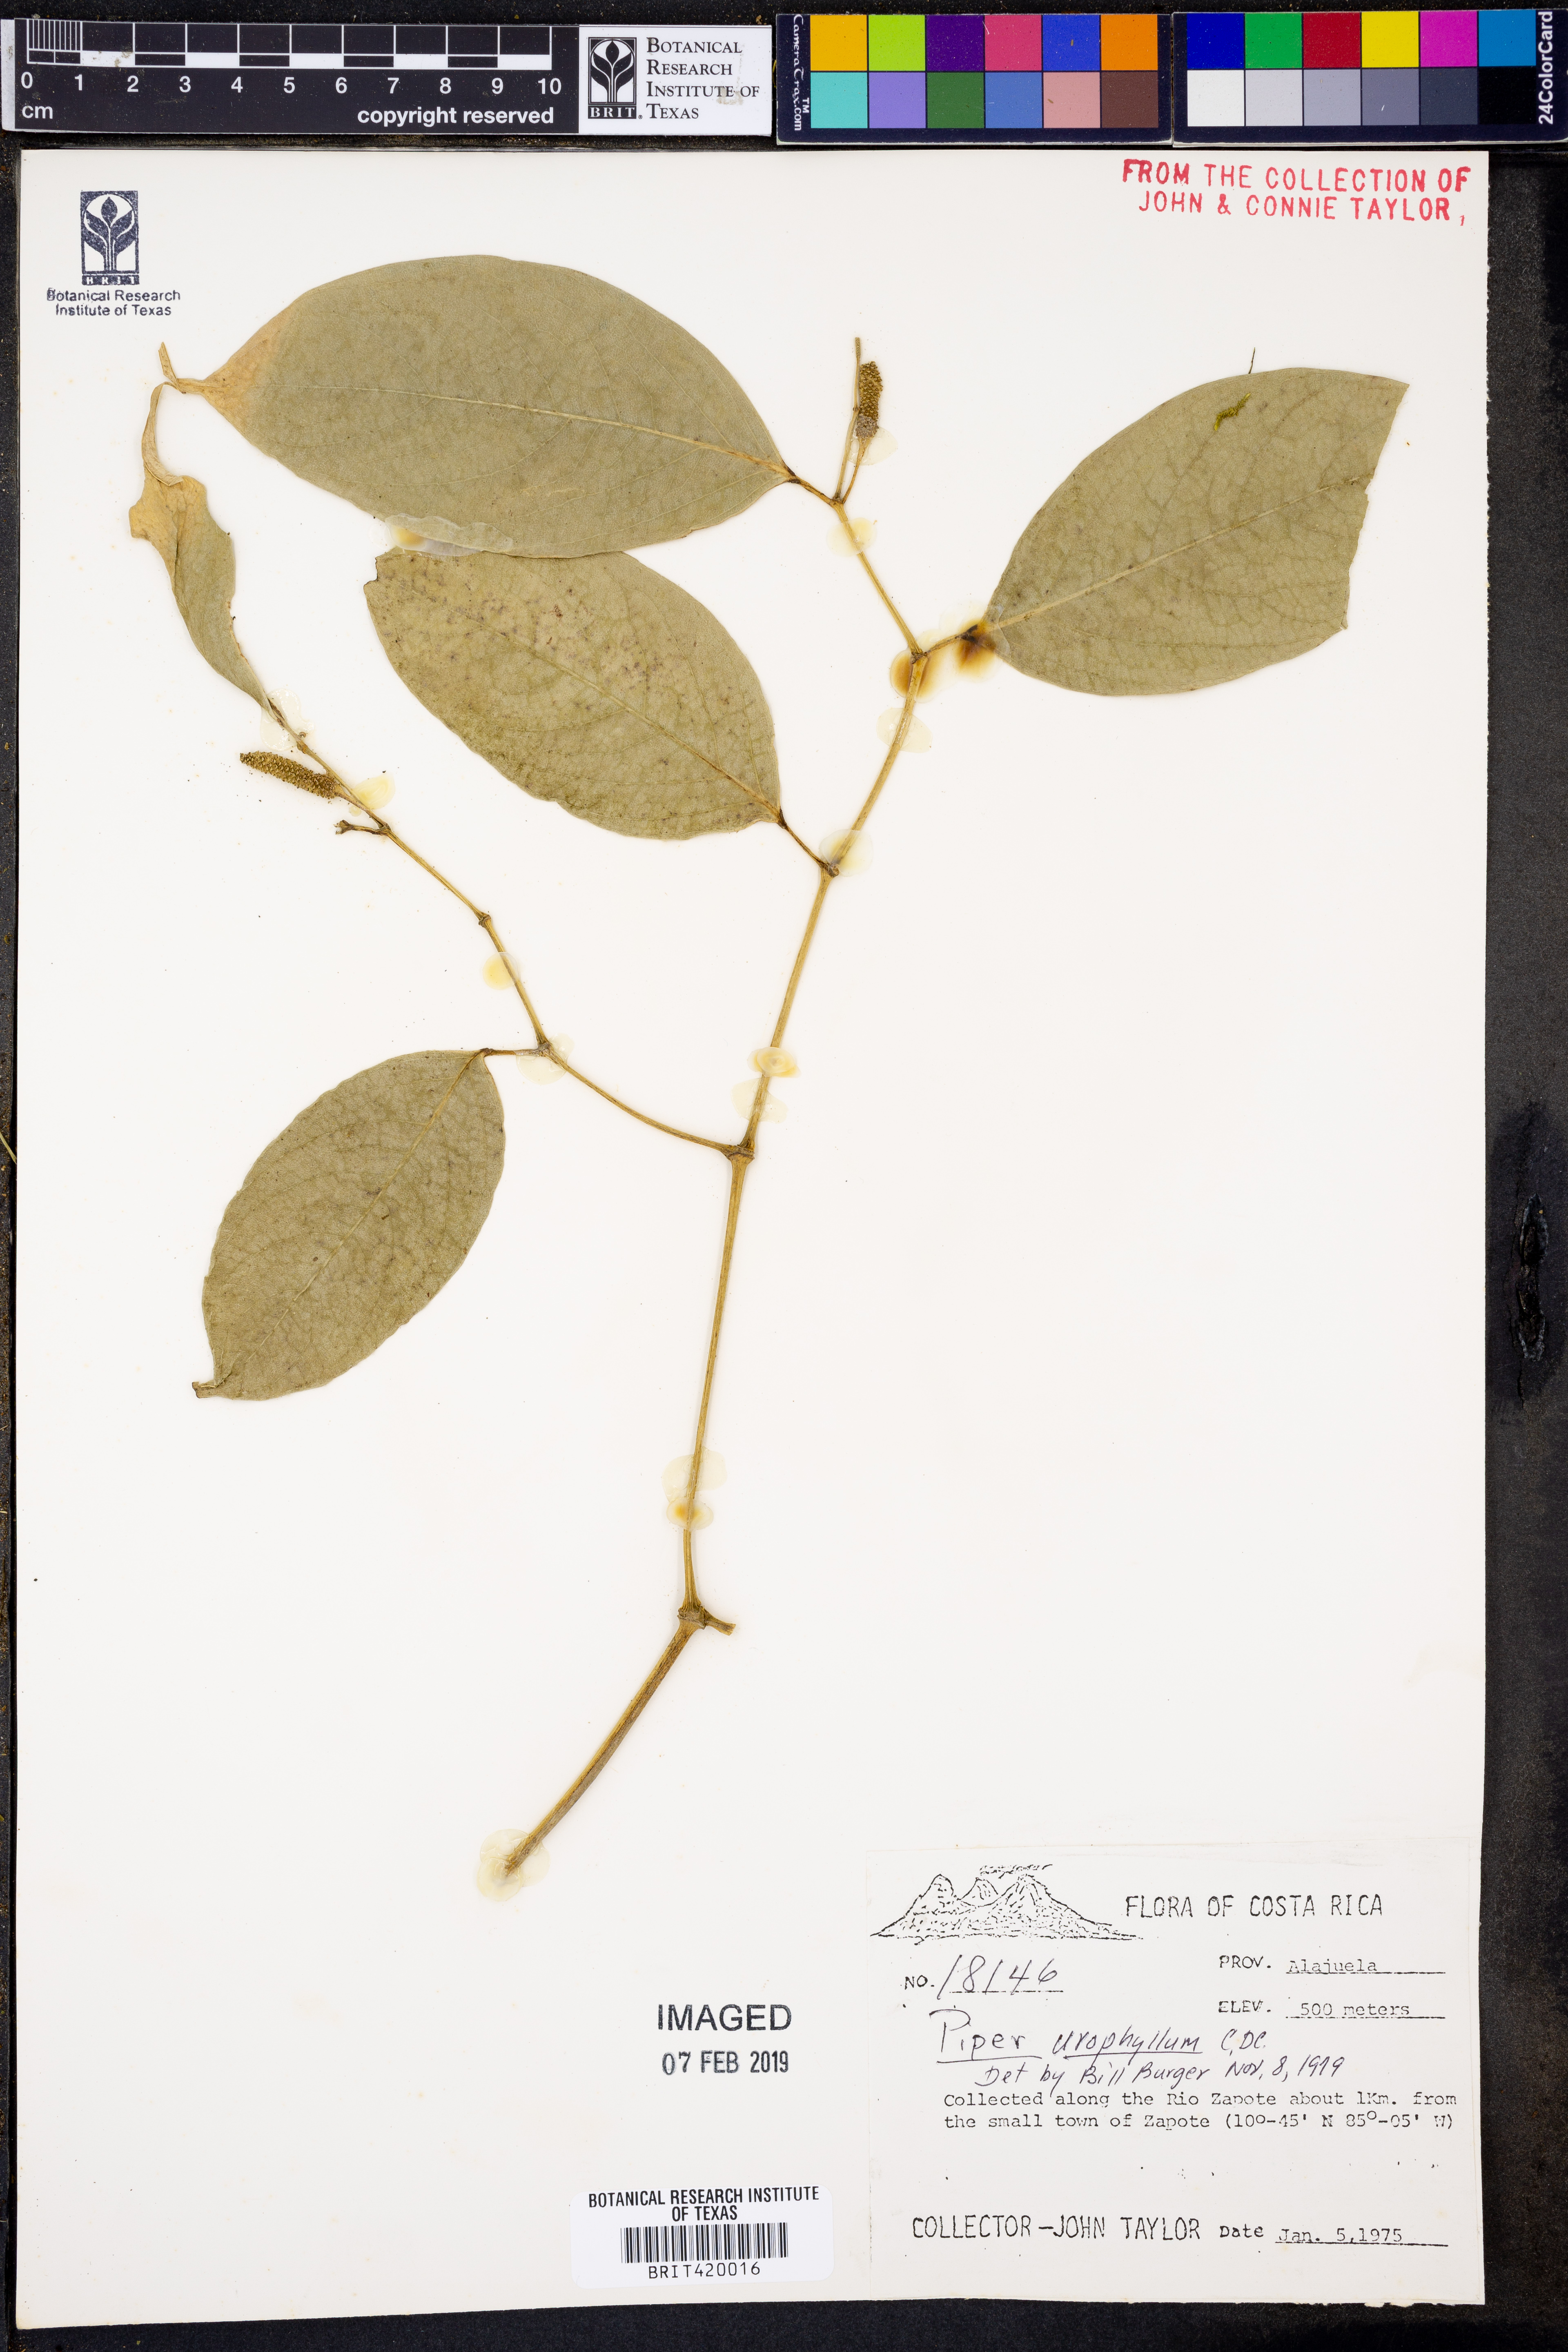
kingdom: Plantae
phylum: Tracheophyta
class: Magnoliopsida
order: Piperales
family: Piperaceae
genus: Piper
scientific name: Piper urophyllum
